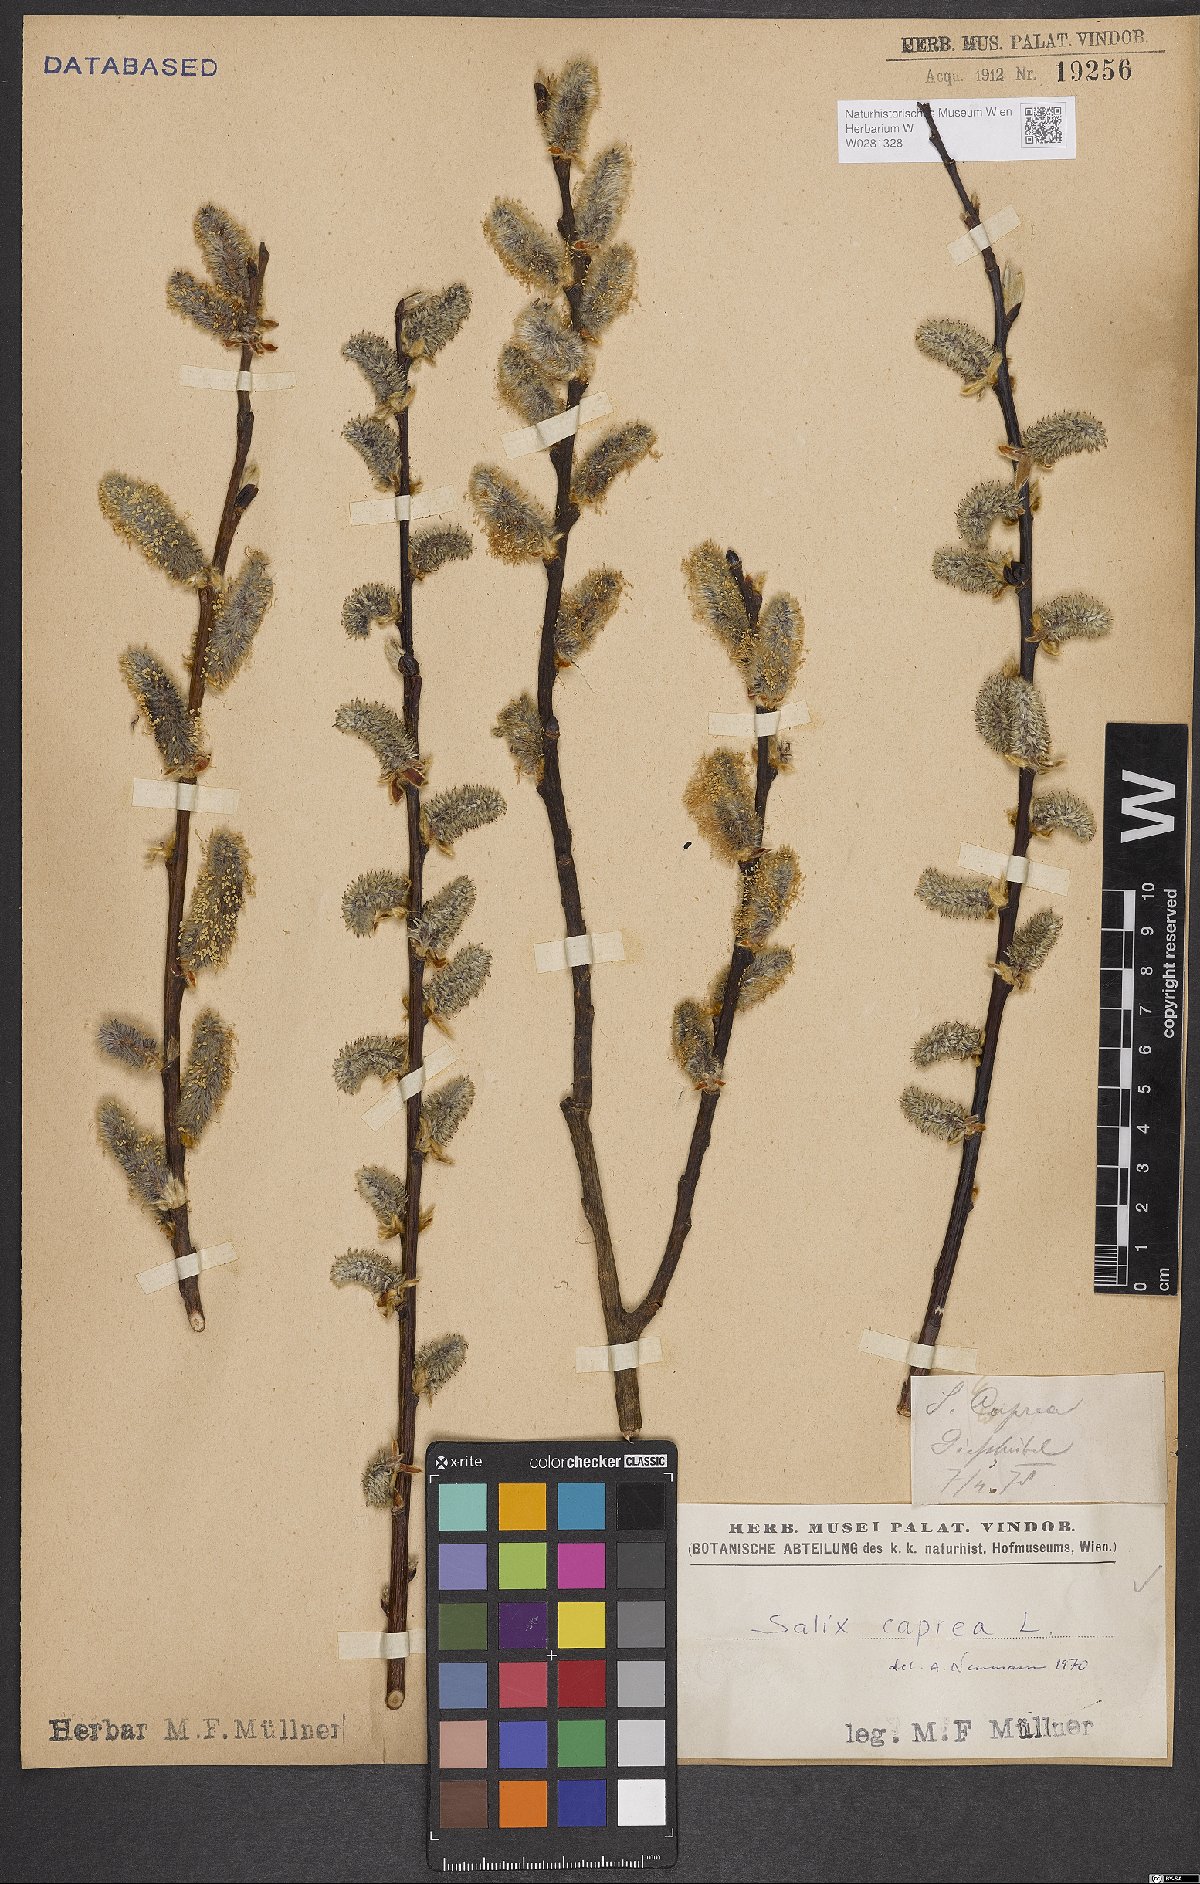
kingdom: Plantae
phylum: Tracheophyta
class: Magnoliopsida
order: Malpighiales
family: Salicaceae
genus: Salix
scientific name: Salix caprea
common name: Goat willow
